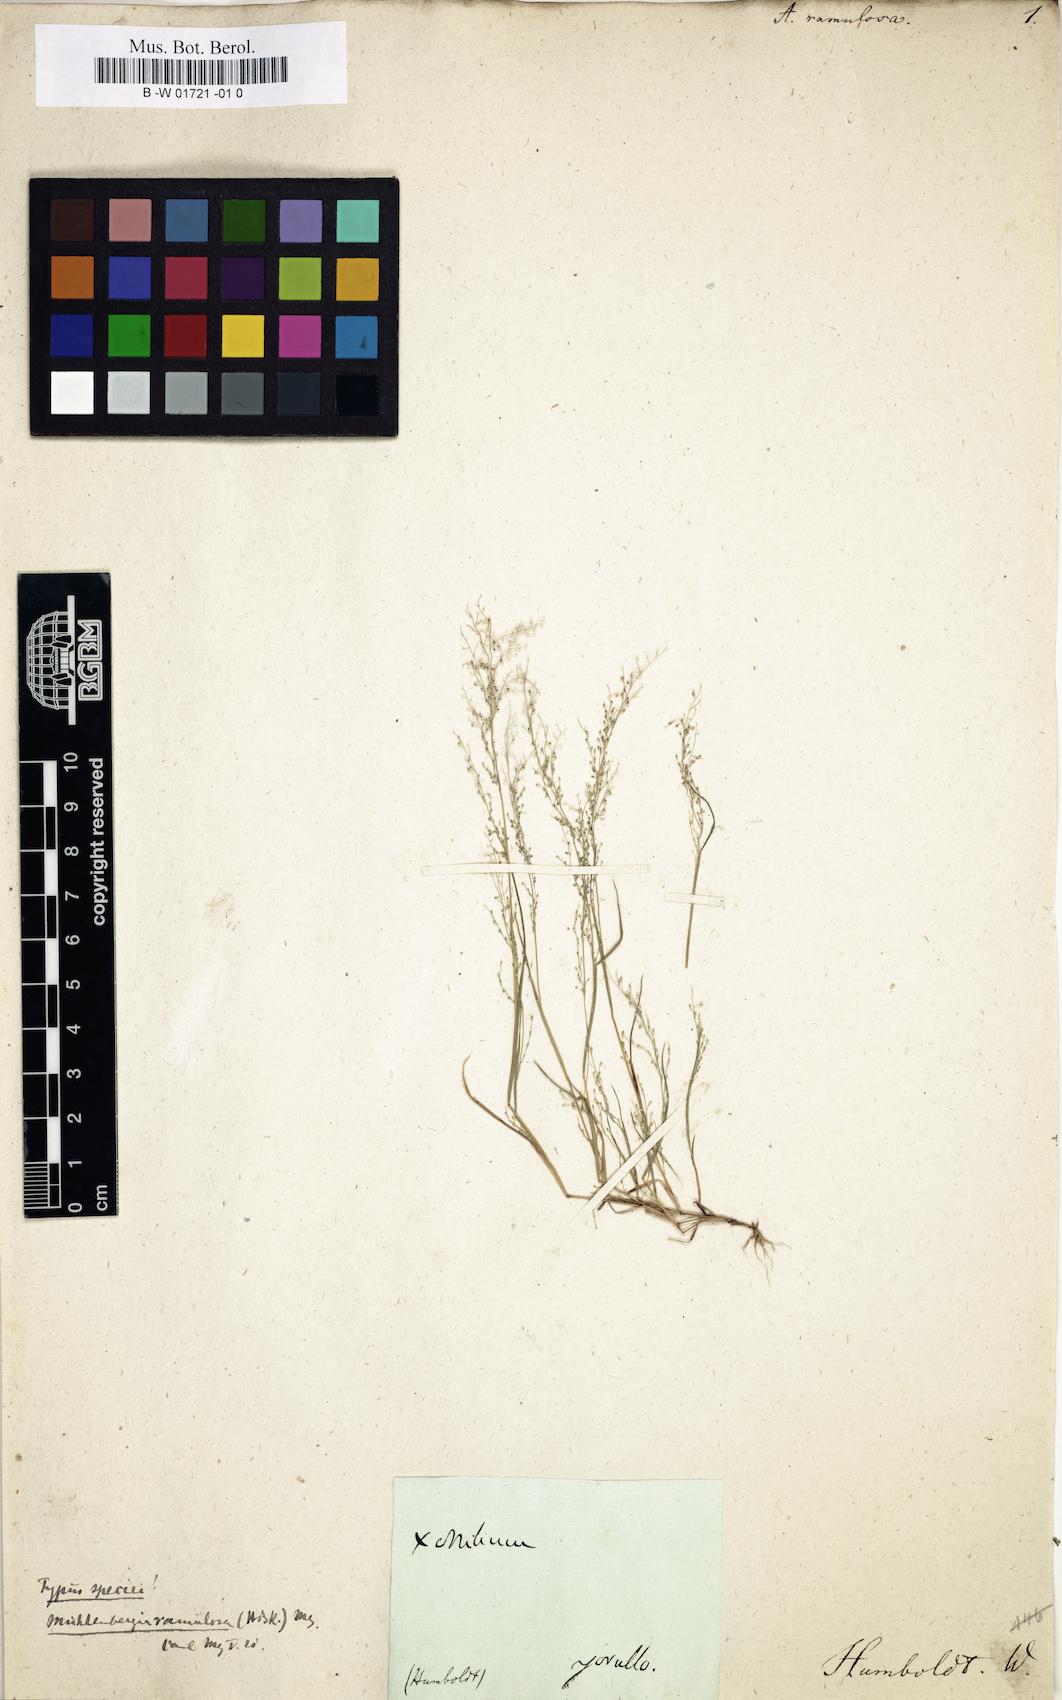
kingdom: Plantae
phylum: Tracheophyta
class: Liliopsida
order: Poales
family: Poaceae
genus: Muhlenbergia
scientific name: Muhlenbergia ramulosa
